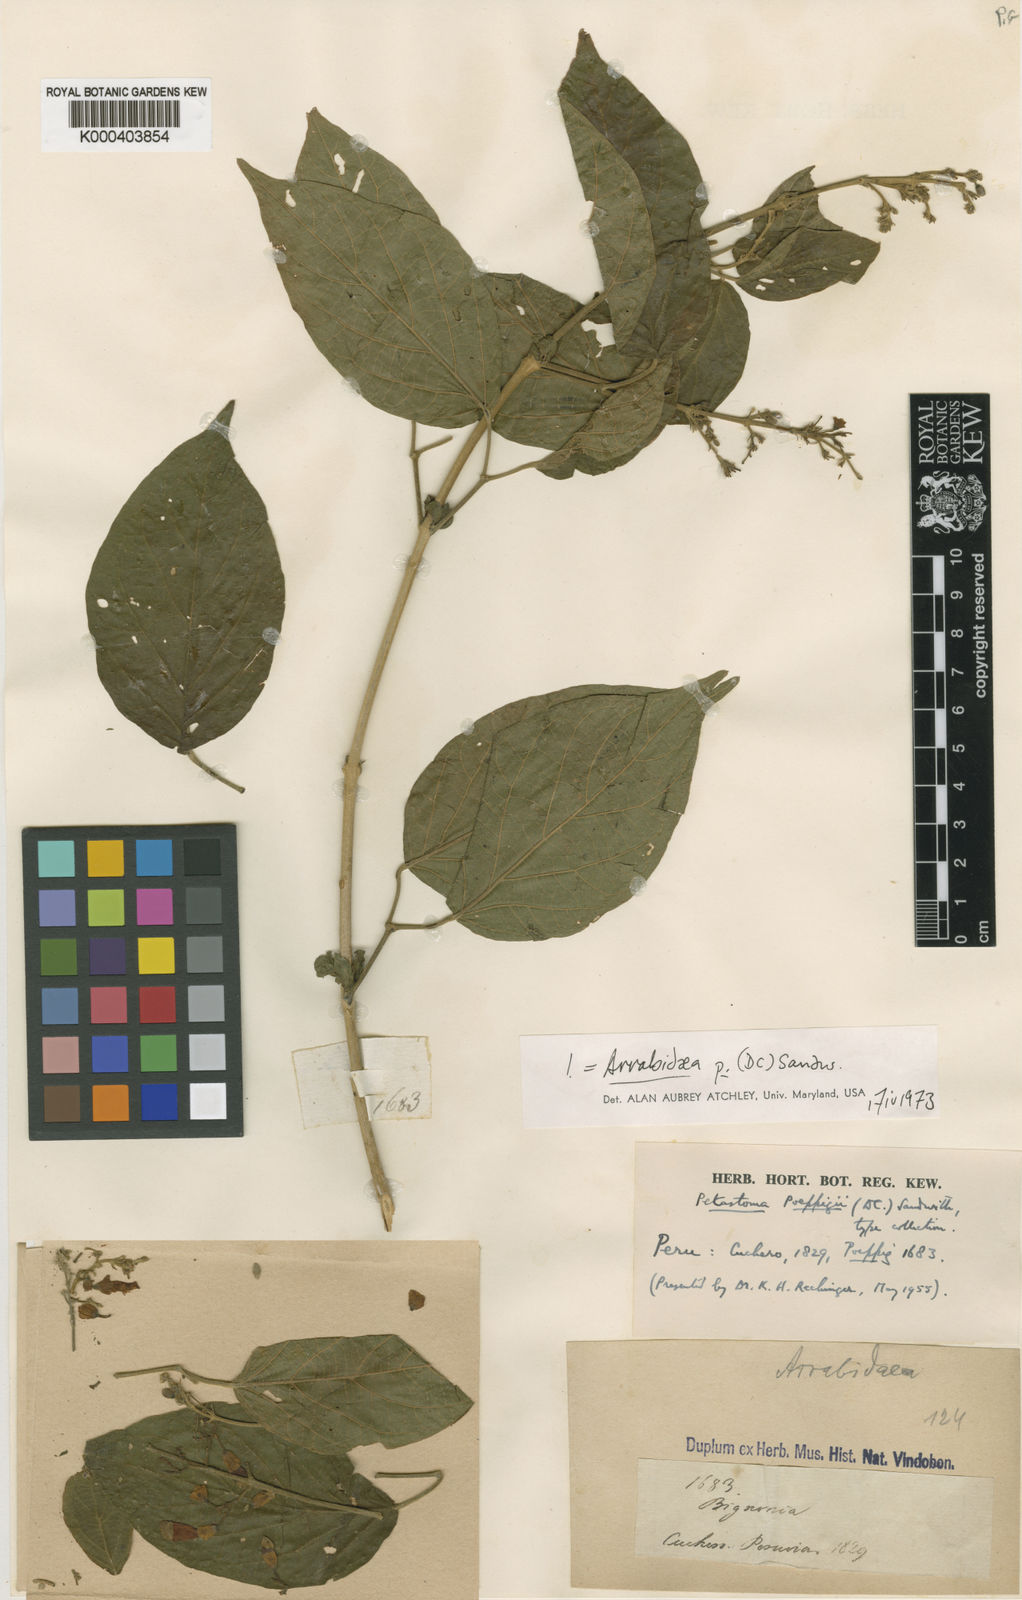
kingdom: Plantae
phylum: Tracheophyta
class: Magnoliopsida
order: Lamiales
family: Bignoniaceae
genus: Fridericia
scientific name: Fridericia poeppigii
